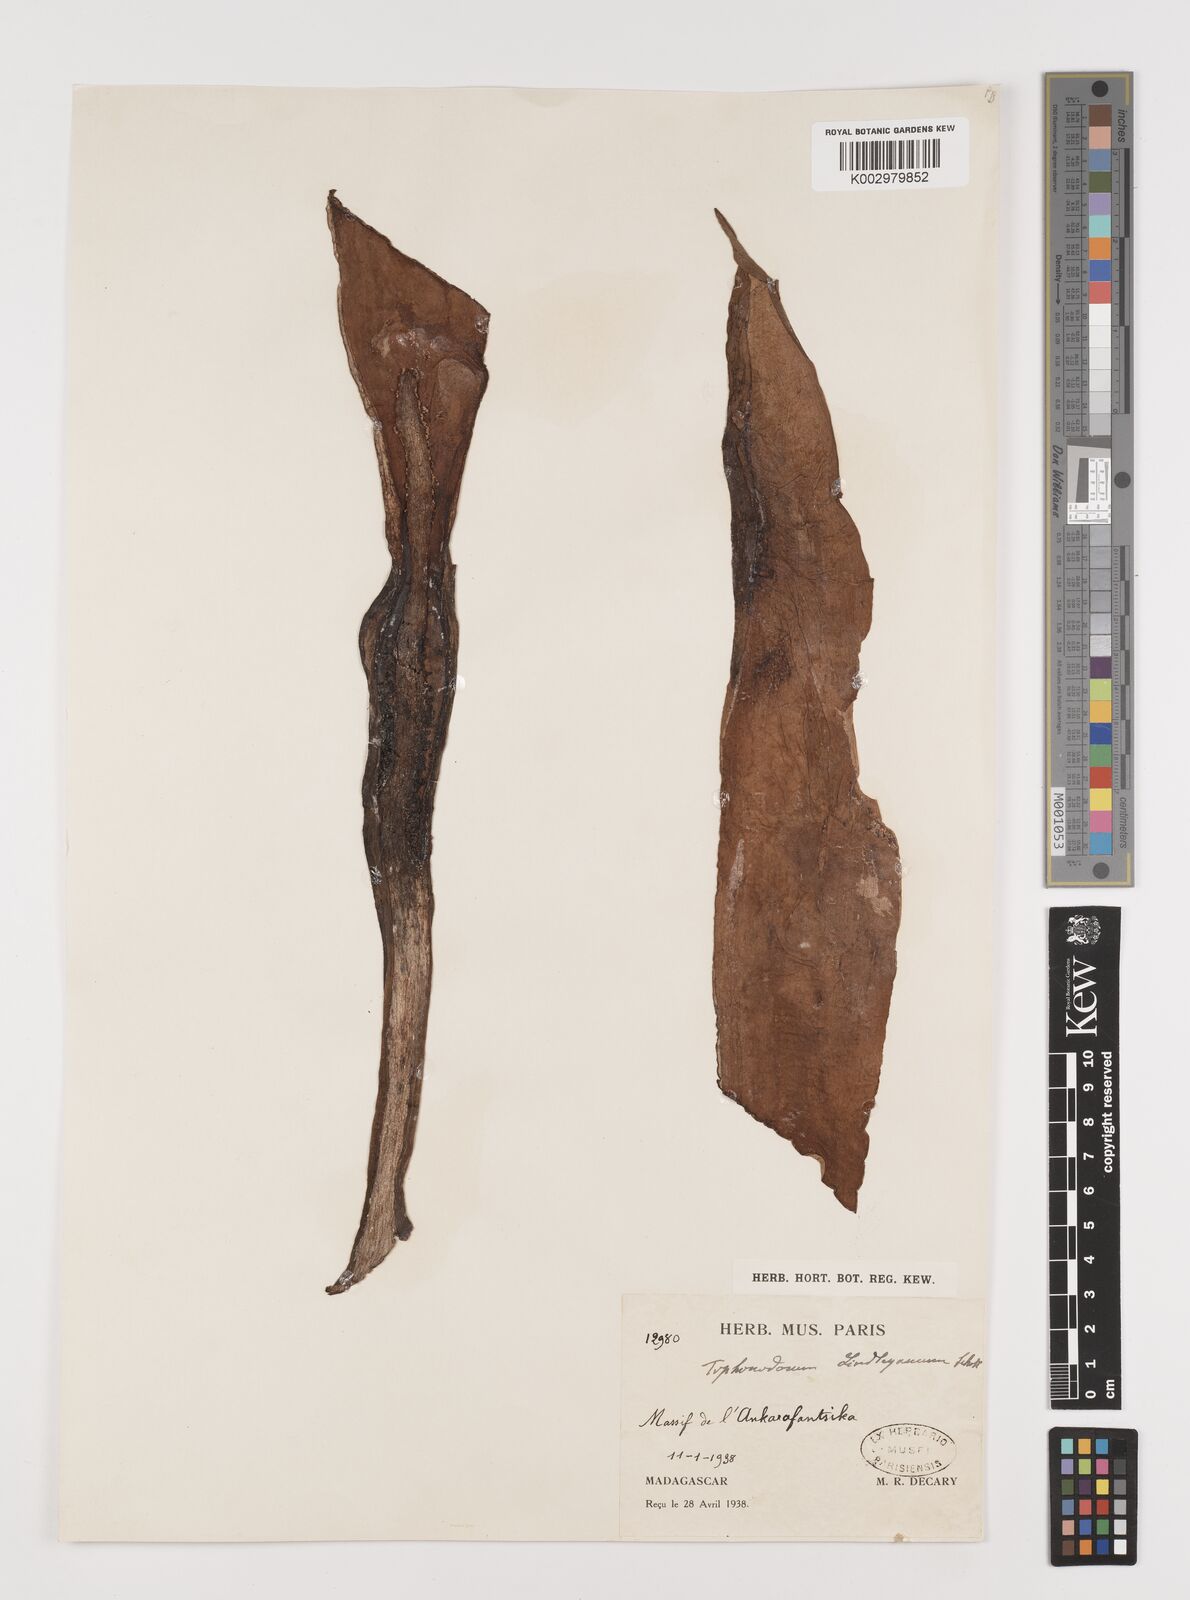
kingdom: Plantae
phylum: Tracheophyta
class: Liliopsida
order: Alismatales
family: Araceae
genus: Typhonodorum
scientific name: Typhonodorum lindleyanum
